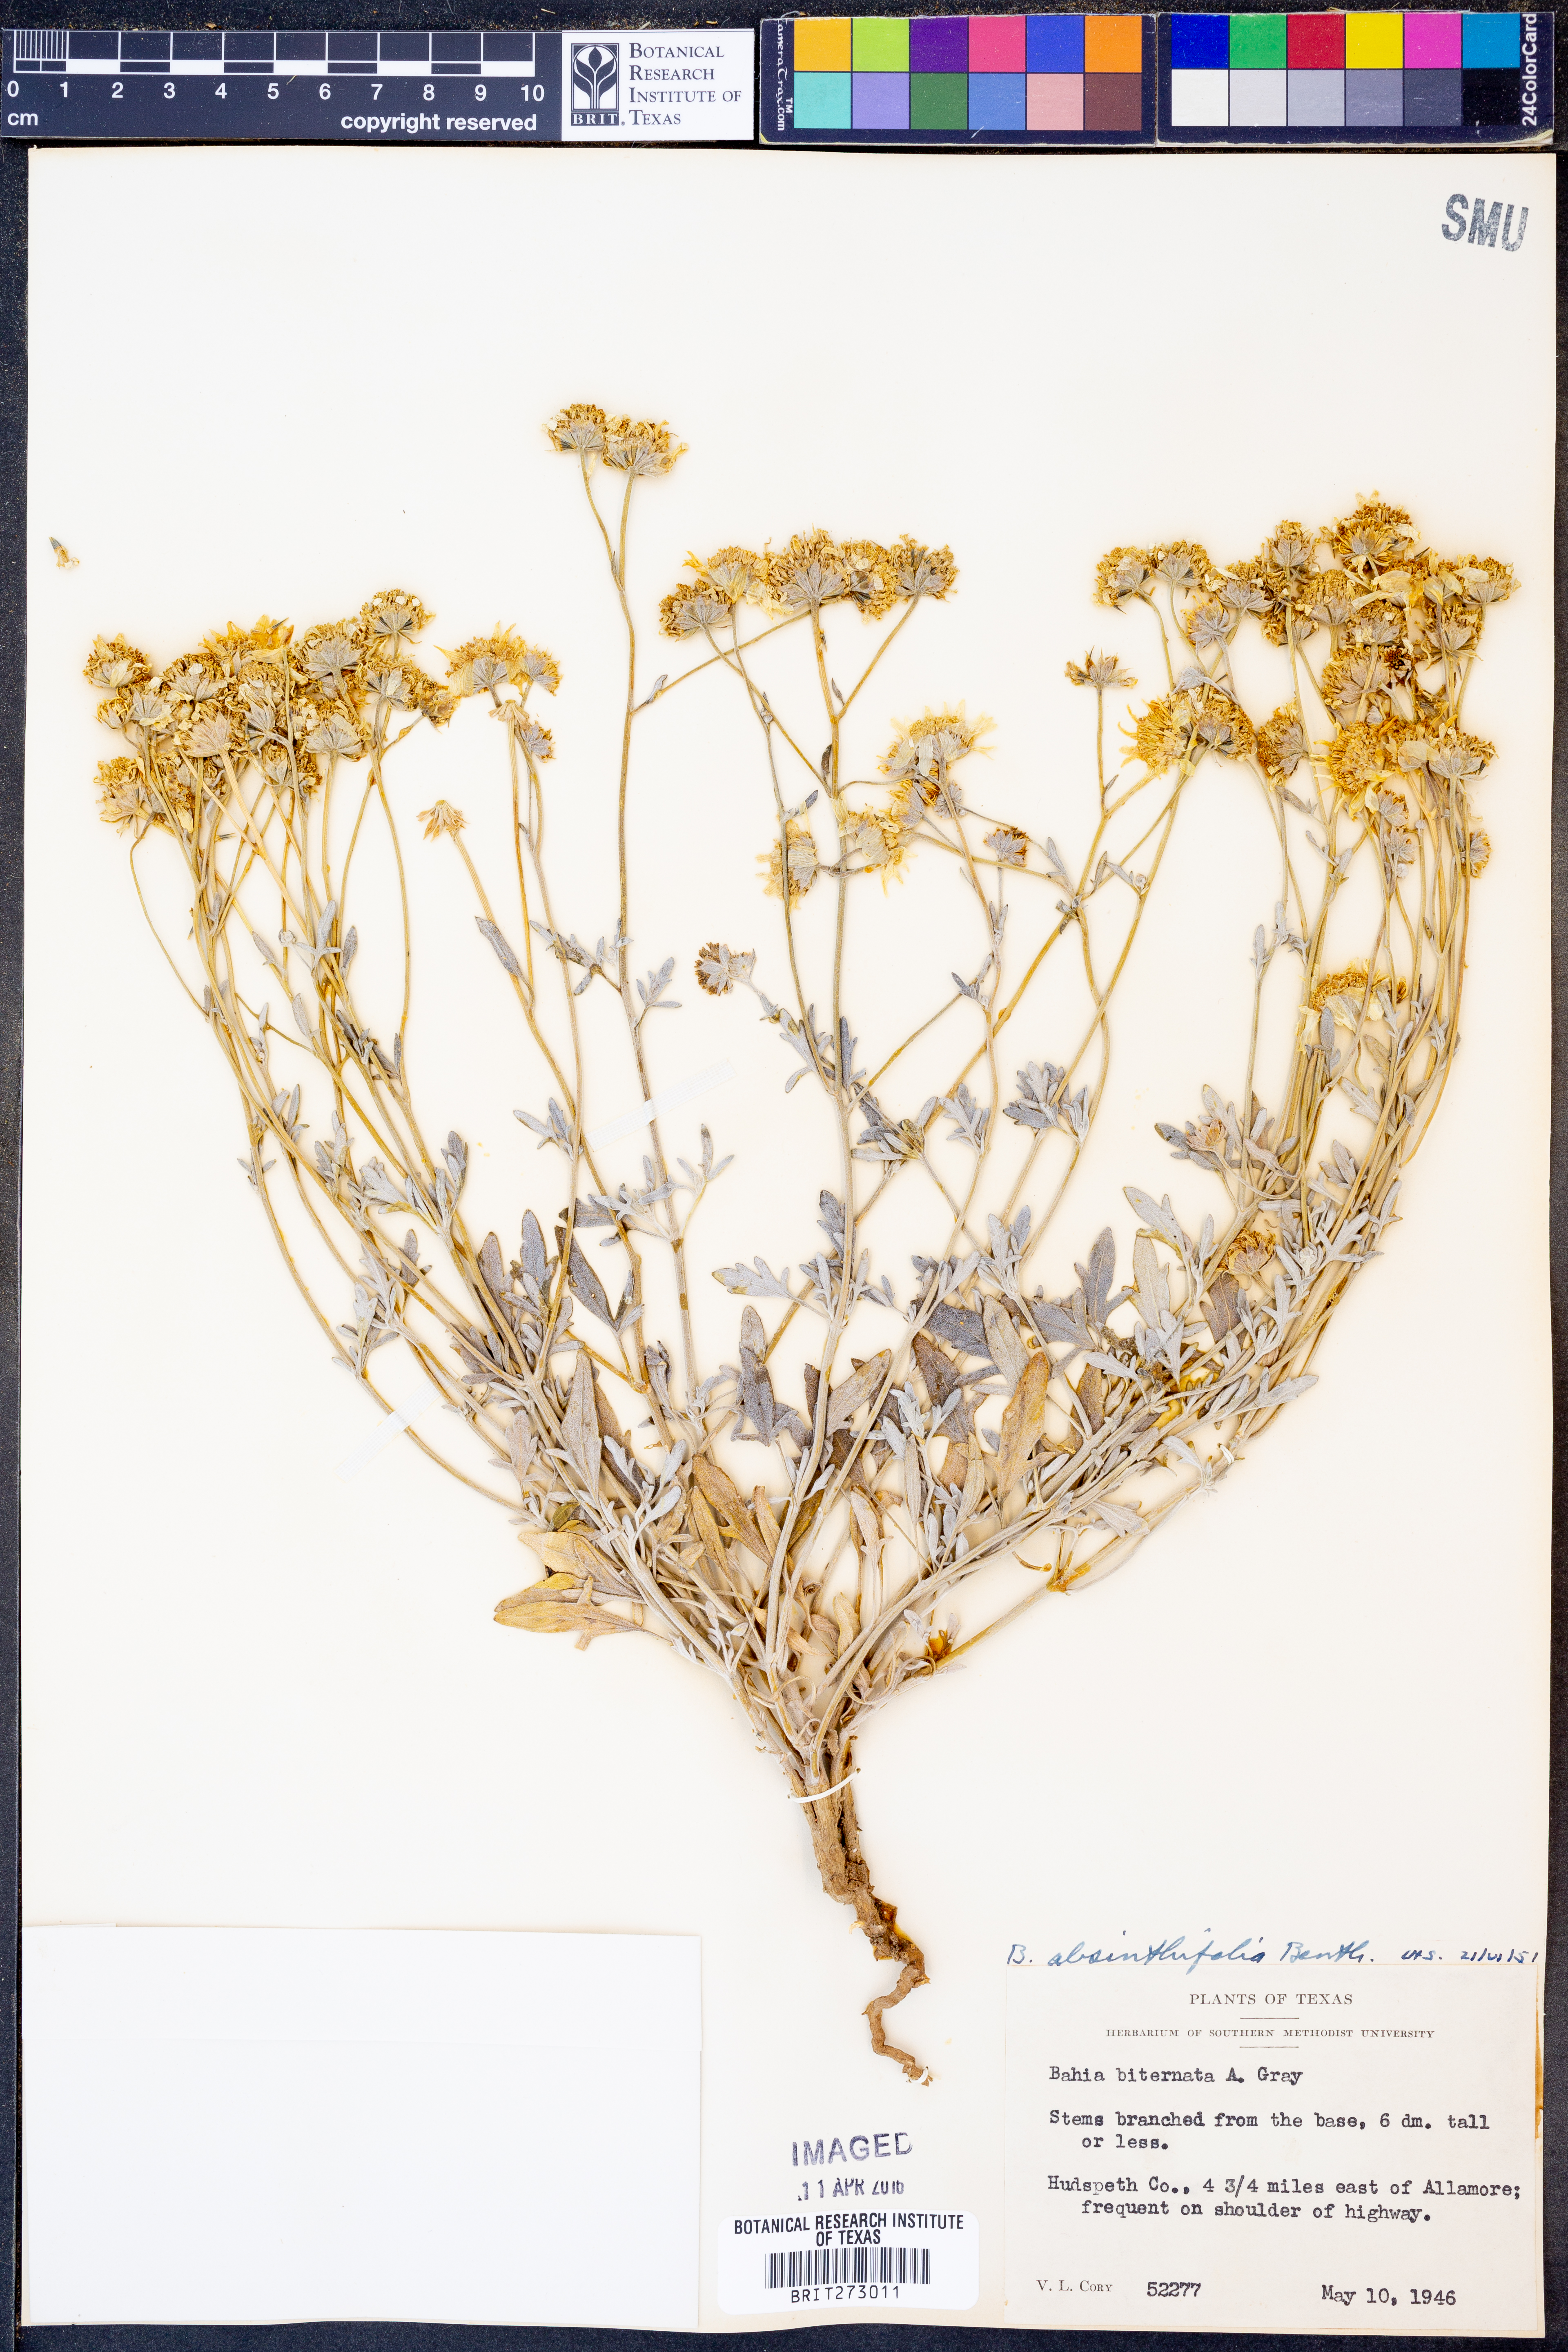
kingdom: Plantae
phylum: Tracheophyta
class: Magnoliopsida
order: Asterales
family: Asteraceae
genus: Picradeniopsis
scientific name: Picradeniopsis absinthifolia
